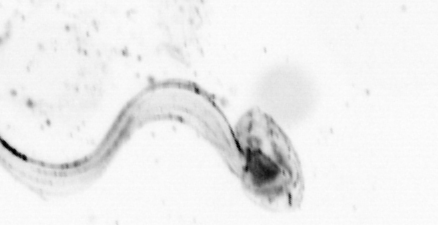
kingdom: Animalia
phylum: Chordata
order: Copelata
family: Fritillariidae
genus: Appendicularia
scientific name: Appendicularia
